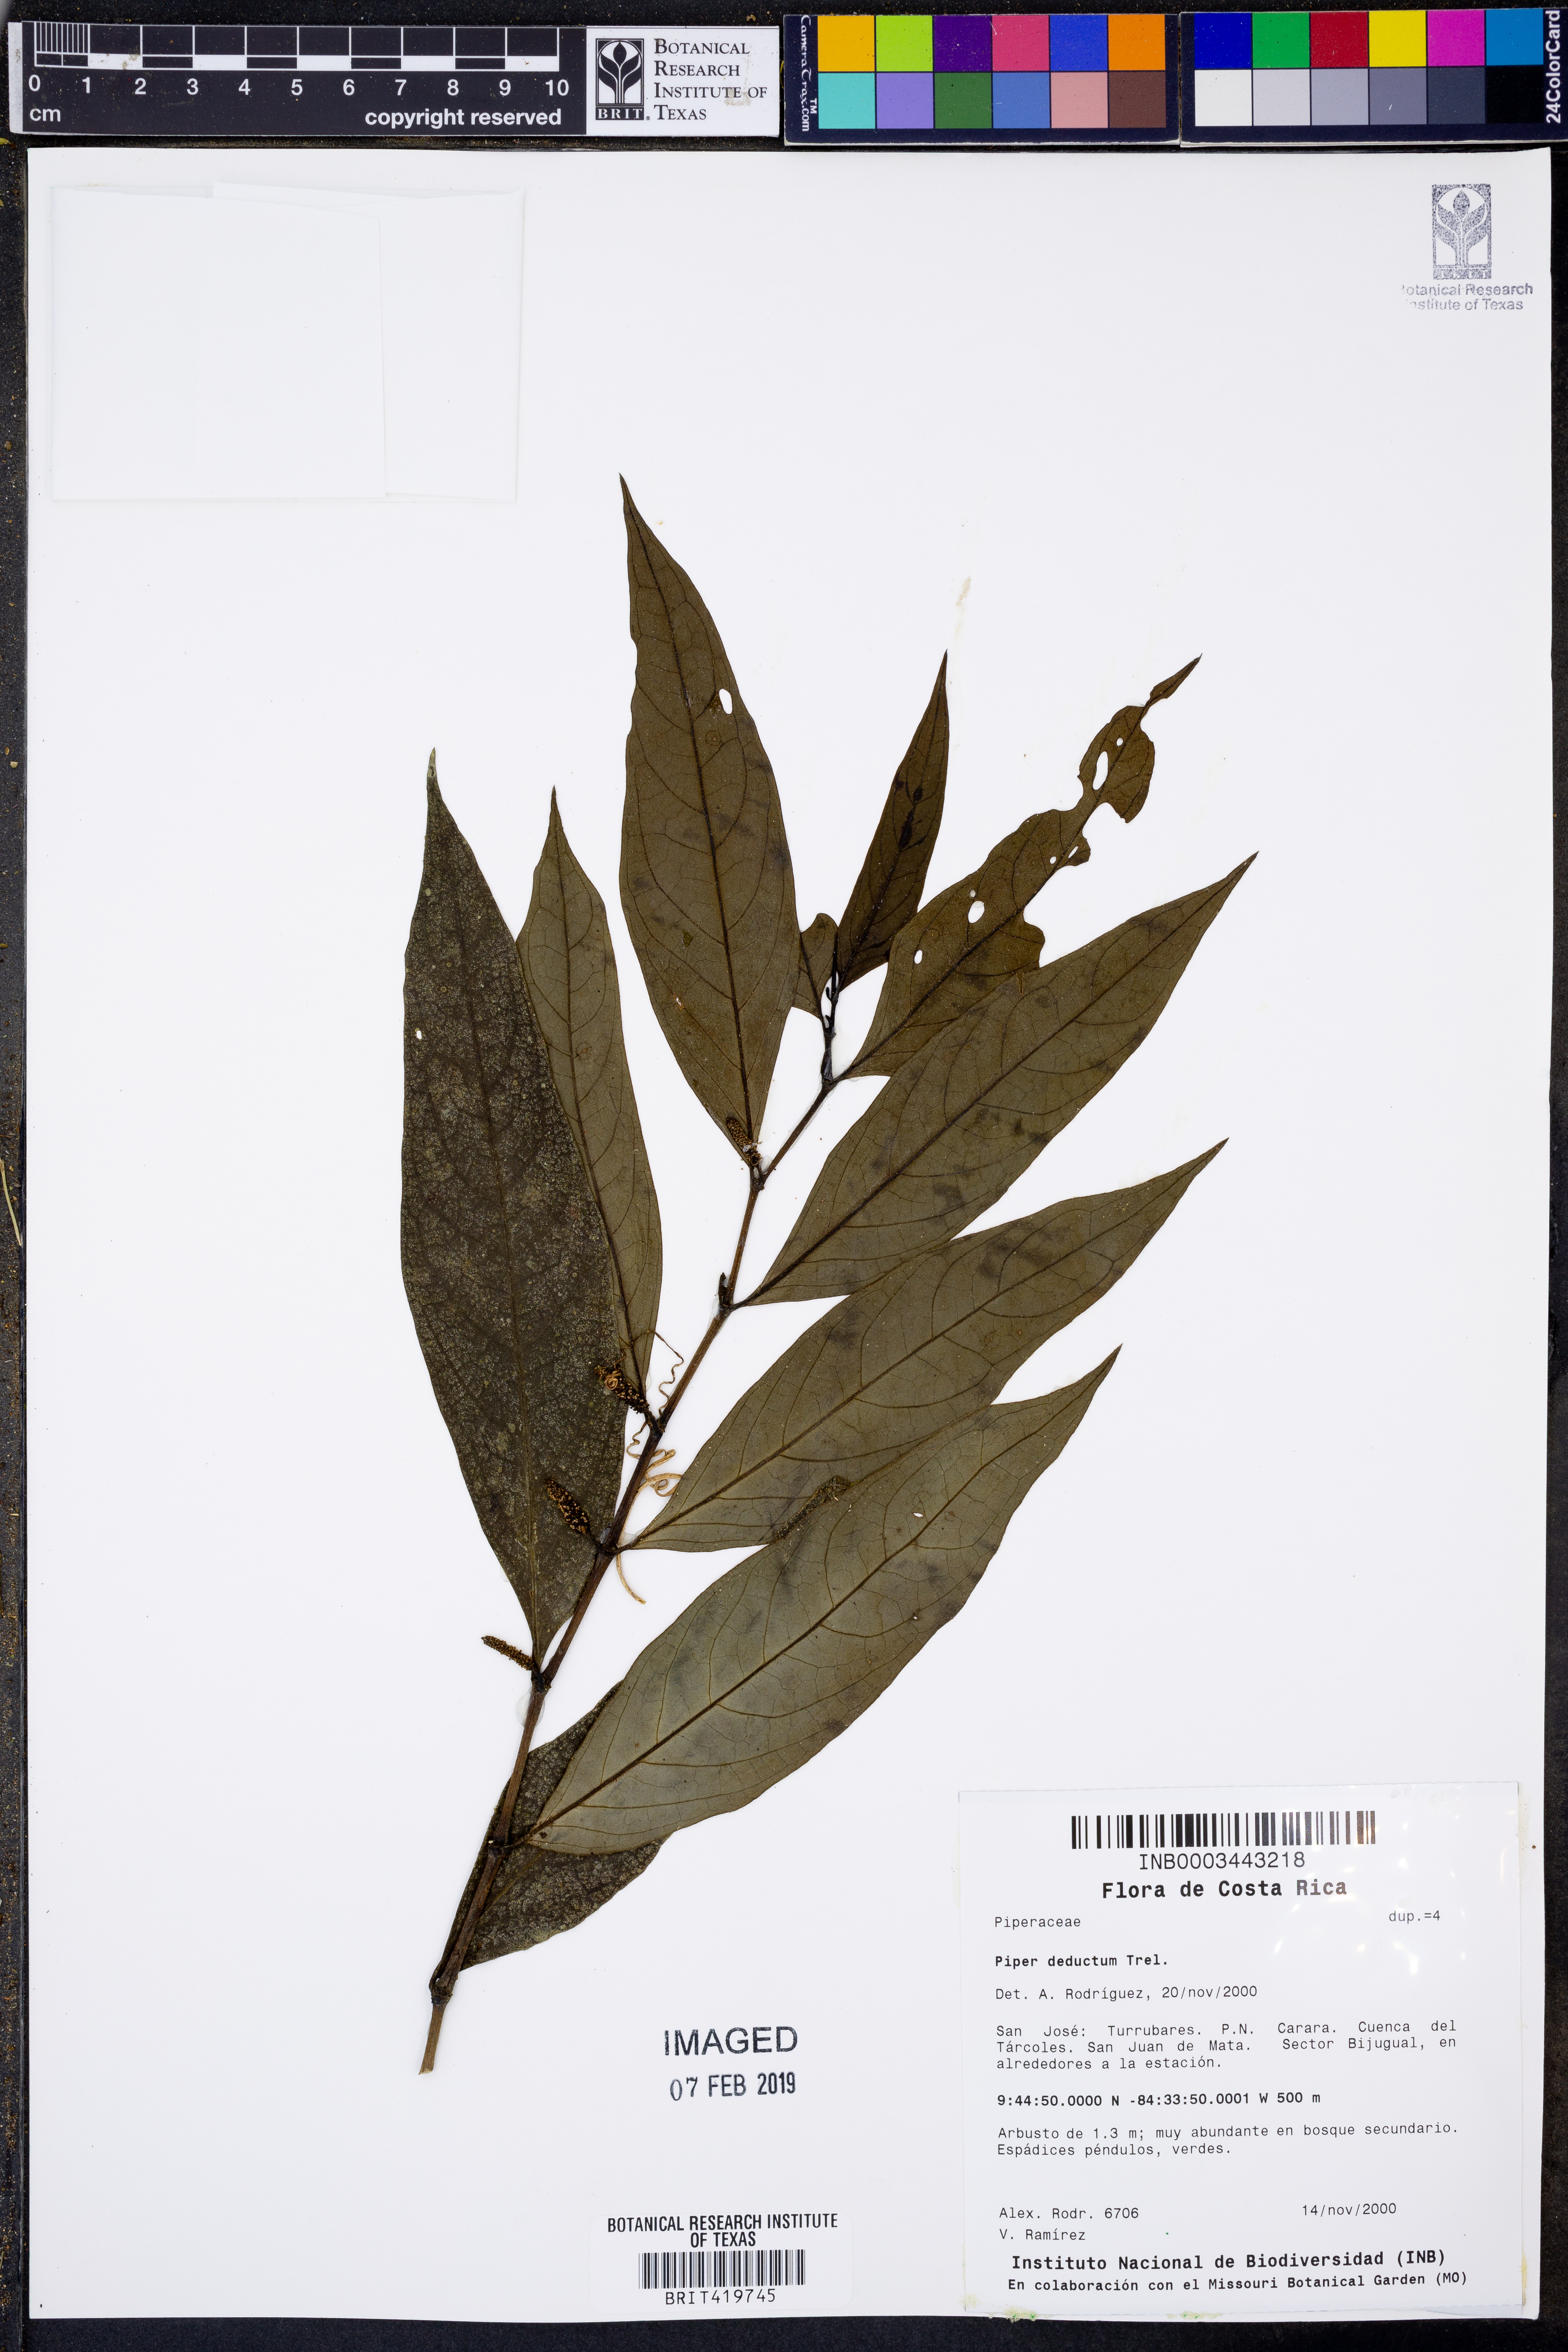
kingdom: Plantae
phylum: Tracheophyta
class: Magnoliopsida
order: Piperales
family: Piperaceae
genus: Piper
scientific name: Piper deductum
